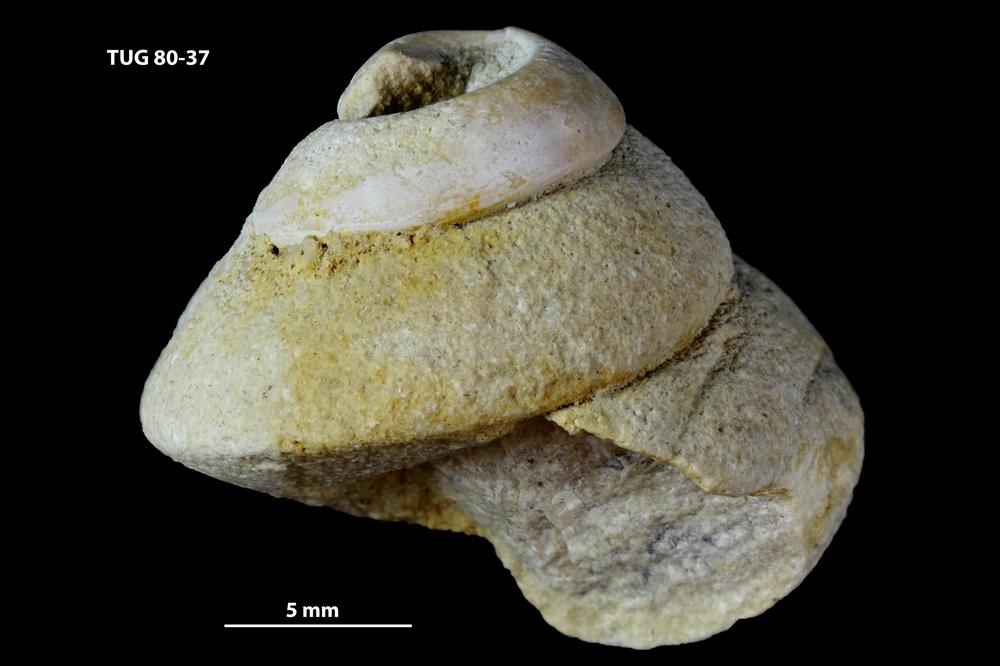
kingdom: Animalia
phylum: Mollusca
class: Gastropoda
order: Trochida
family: Trochidae
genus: Trochus
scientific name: Trochus ellipticus
